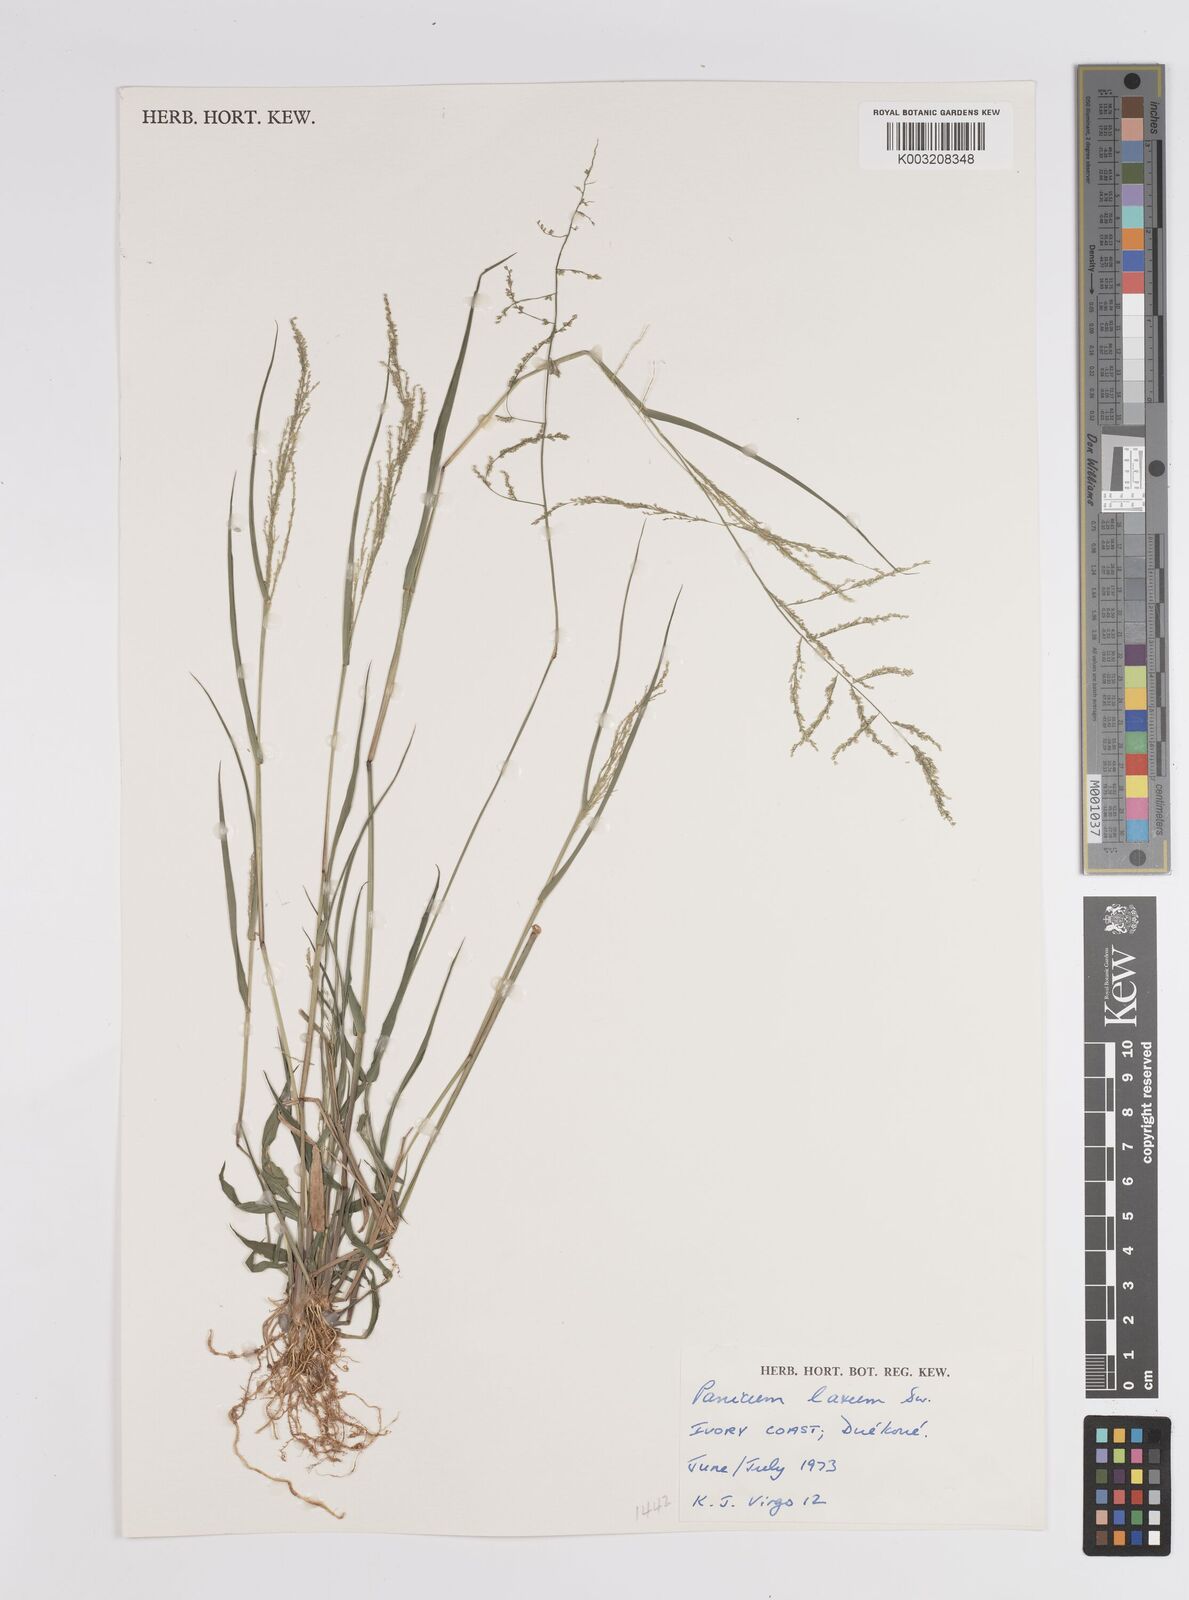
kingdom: Plantae
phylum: Tracheophyta
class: Liliopsida
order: Poales
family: Poaceae
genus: Steinchisma
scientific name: Steinchisma laxum
